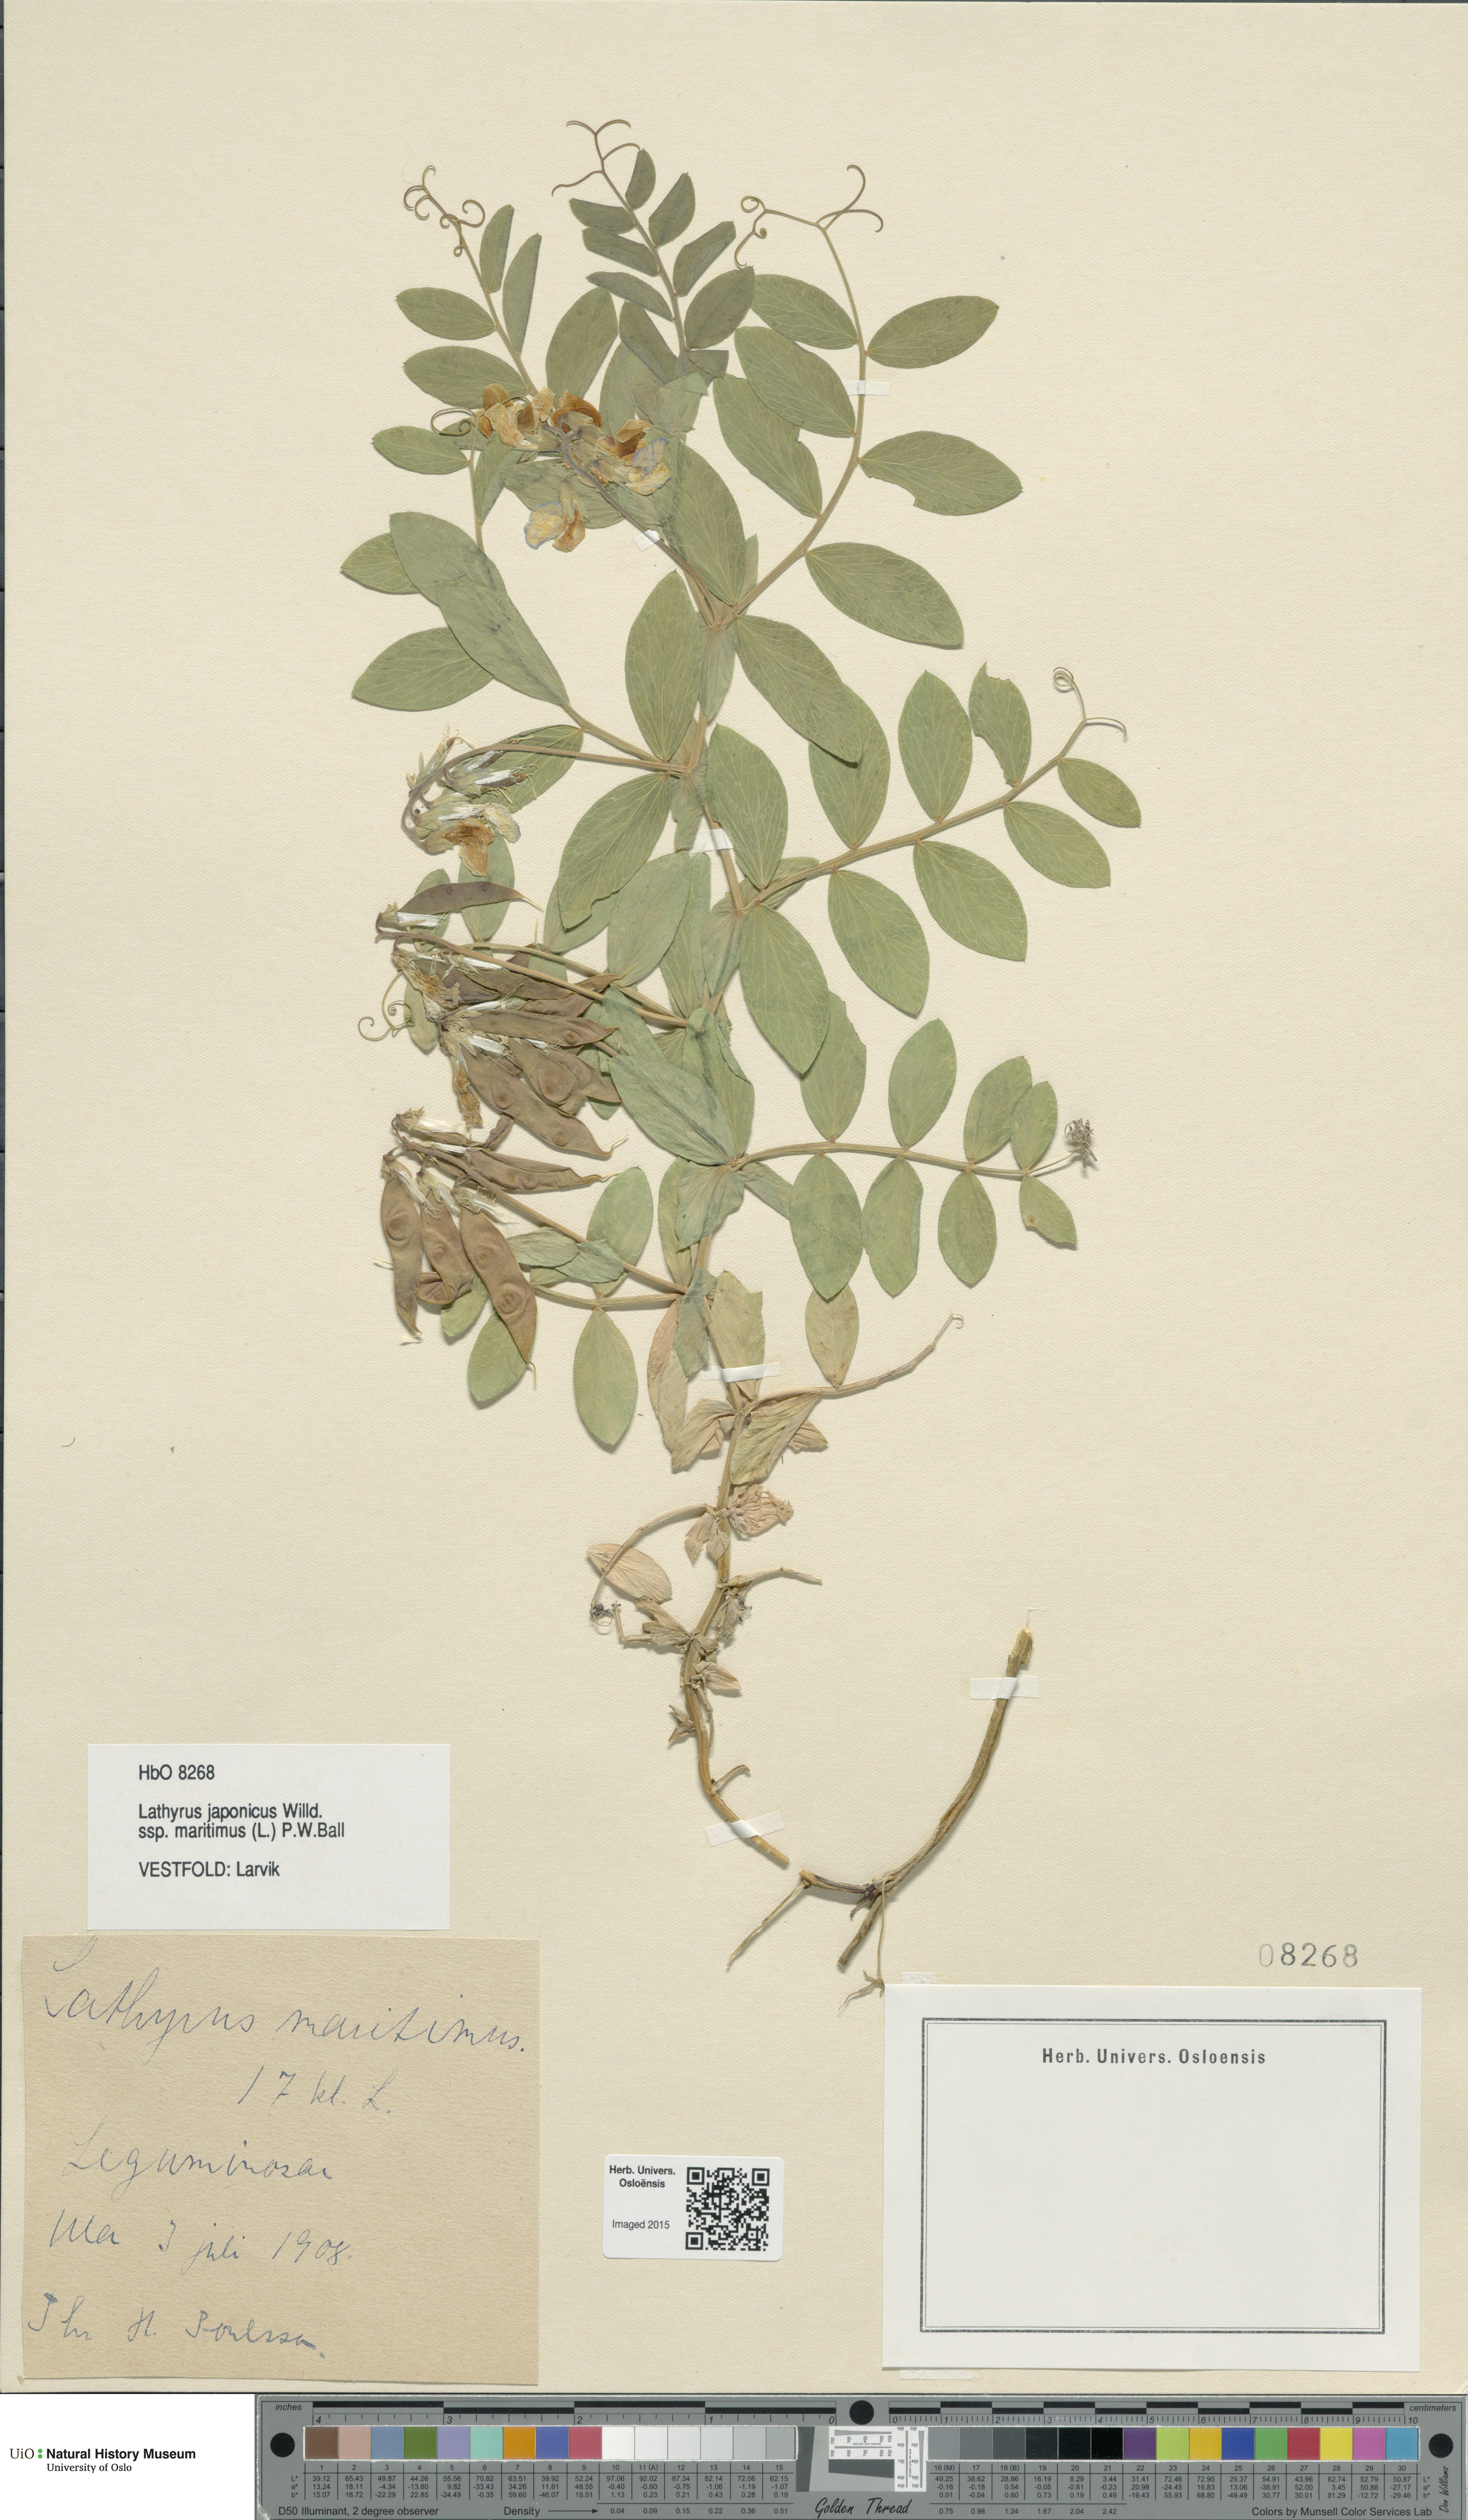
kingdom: Plantae
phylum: Tracheophyta
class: Magnoliopsida
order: Fabales
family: Fabaceae
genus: Lathyrus
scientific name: Lathyrus japonicus
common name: Sea pea
